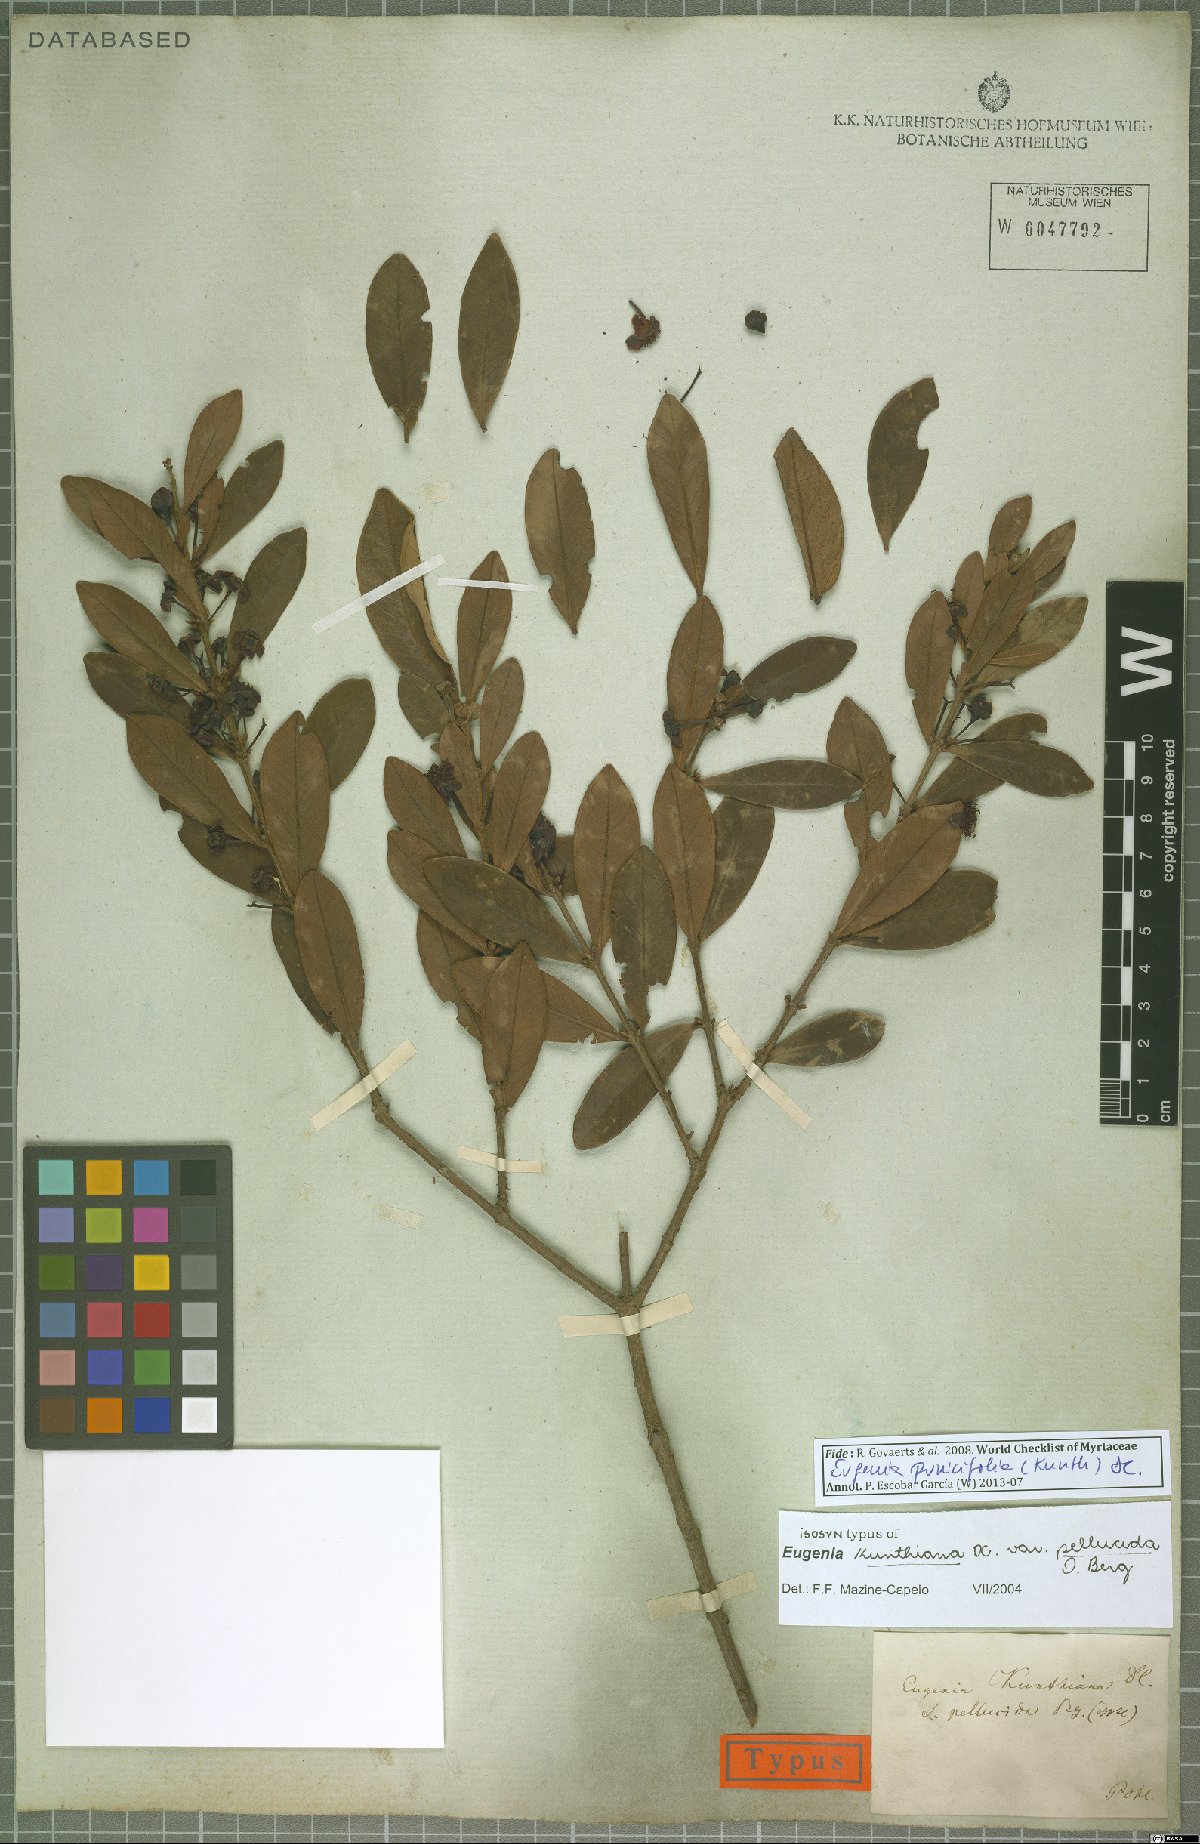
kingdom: Plantae
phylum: Tracheophyta
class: Magnoliopsida
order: Myrtales
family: Myrtaceae
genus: Eugenia
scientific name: Eugenia punicifolia
